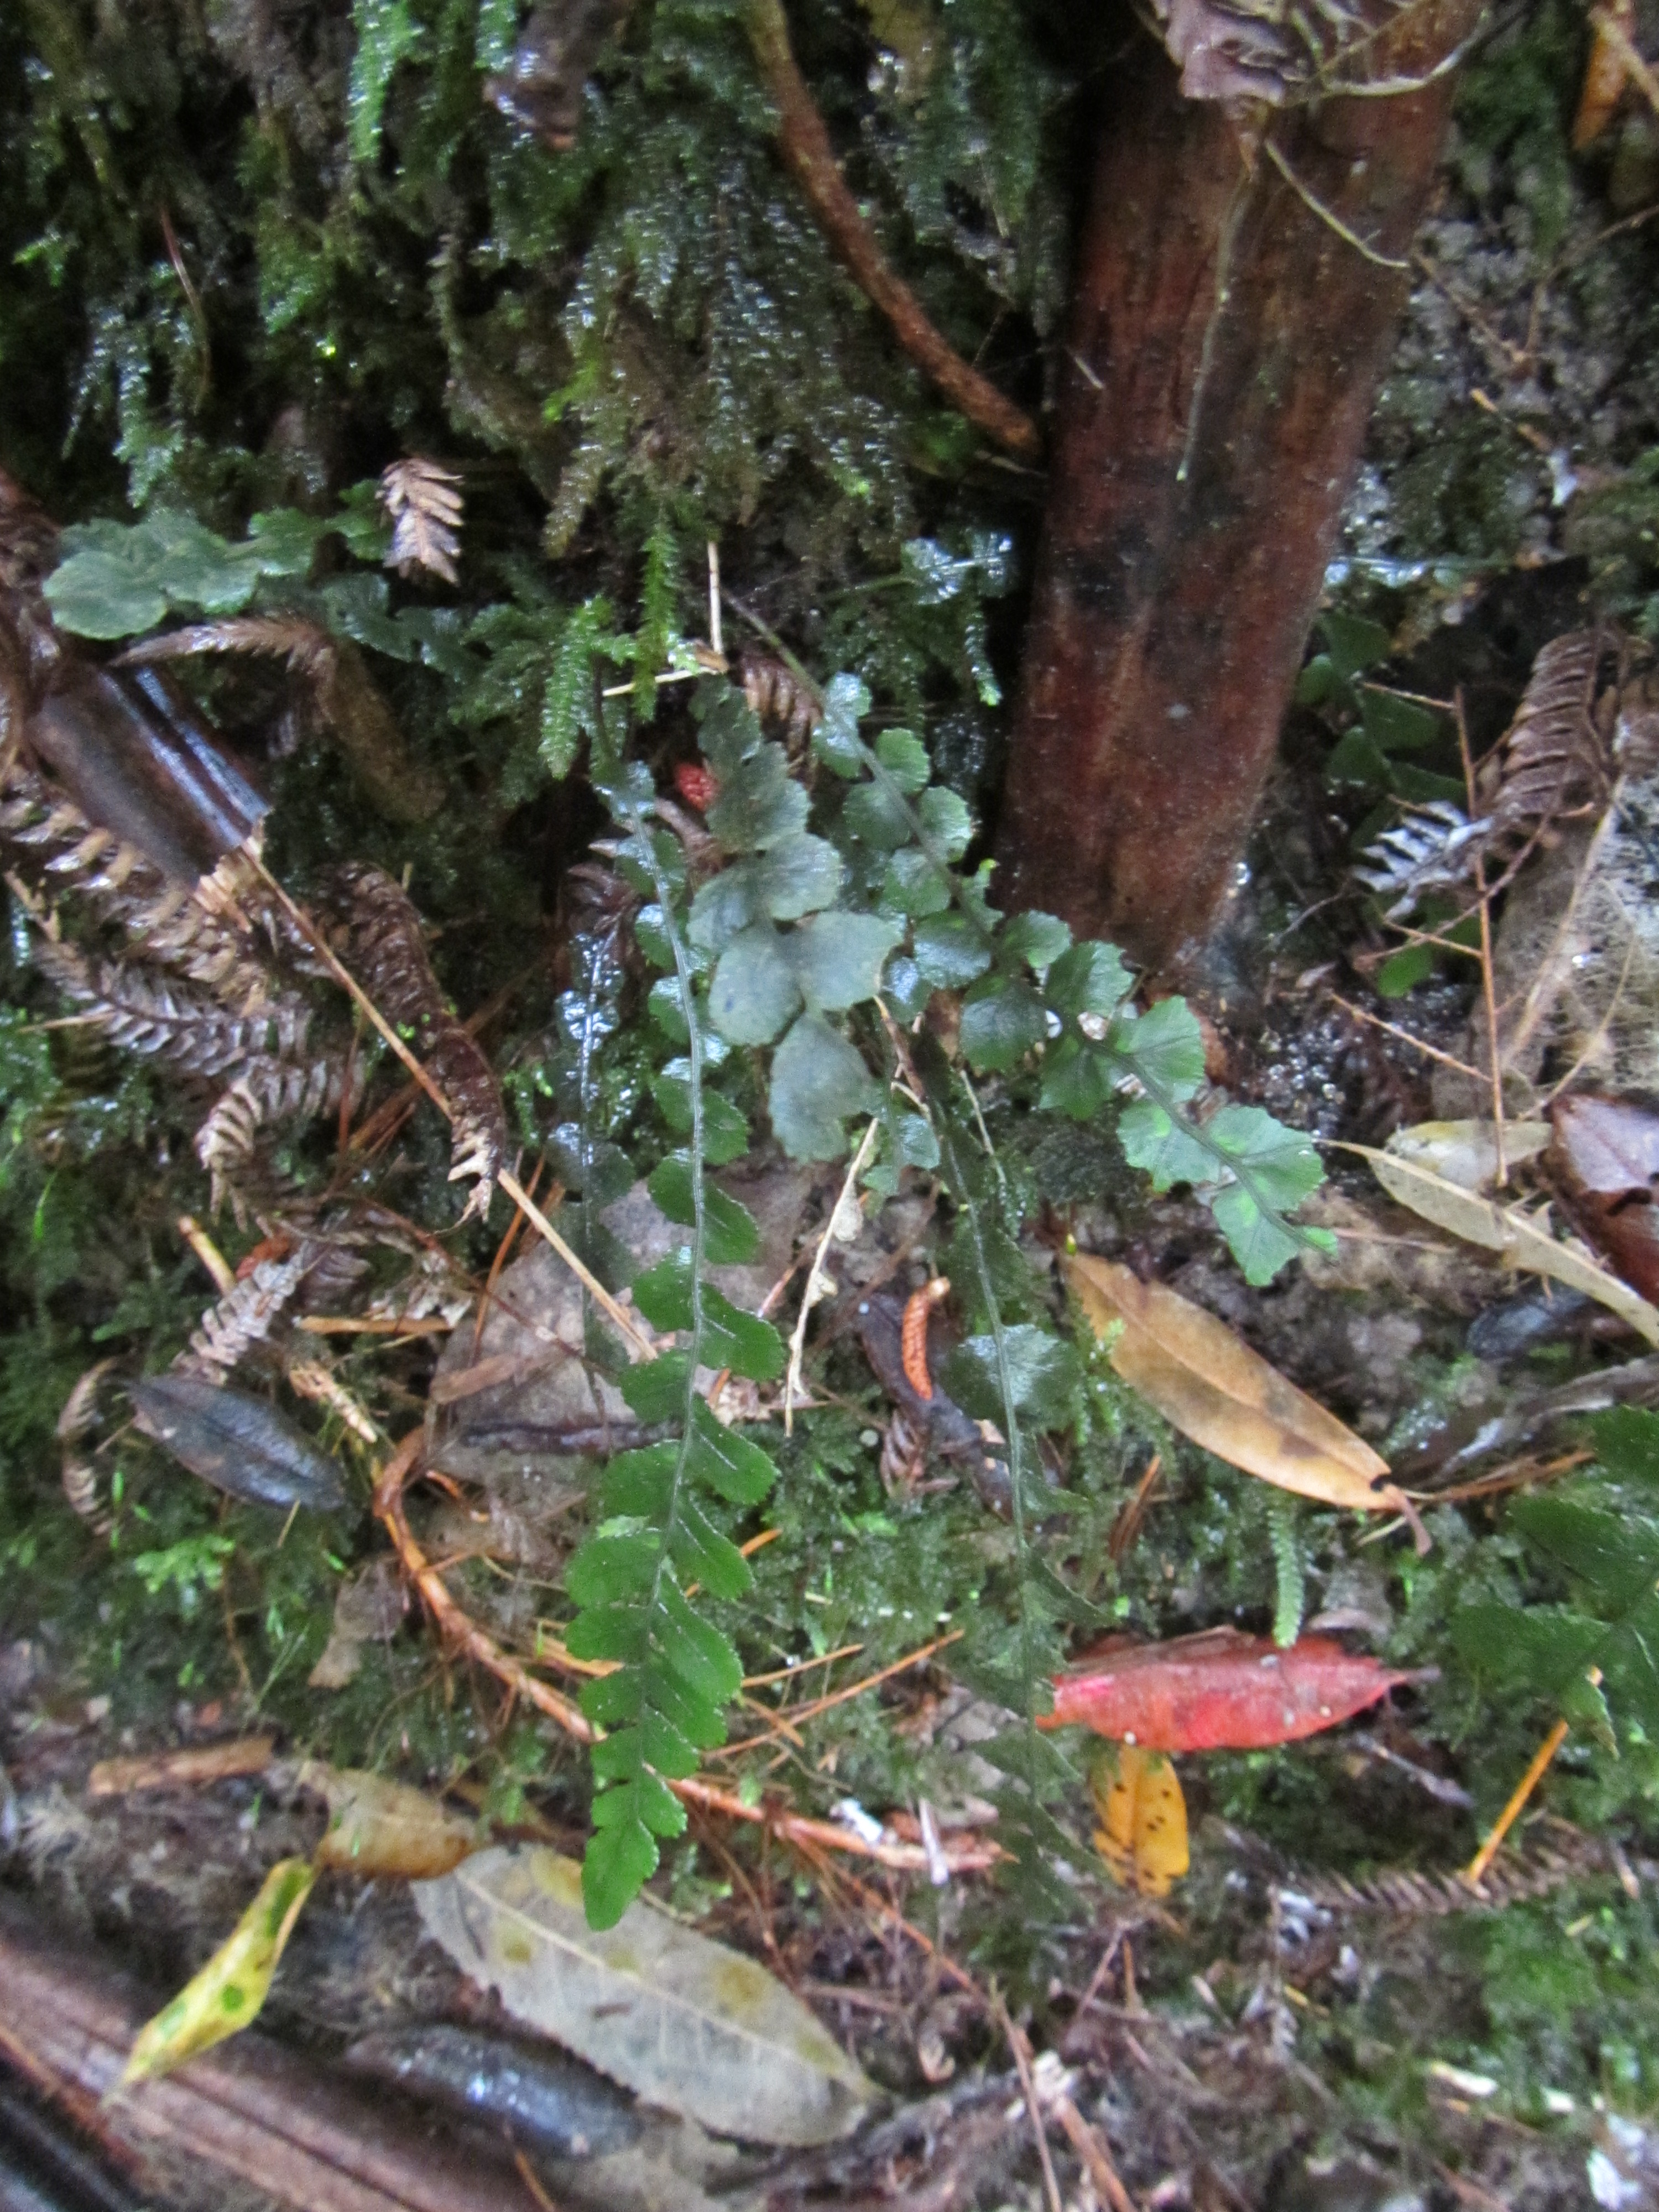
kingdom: Plantae
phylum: Bryophyta
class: Bryopsida
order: Hypnodendrales
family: Spiridentaceae
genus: Hypnodendron
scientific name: Hypnodendron arcuatum
